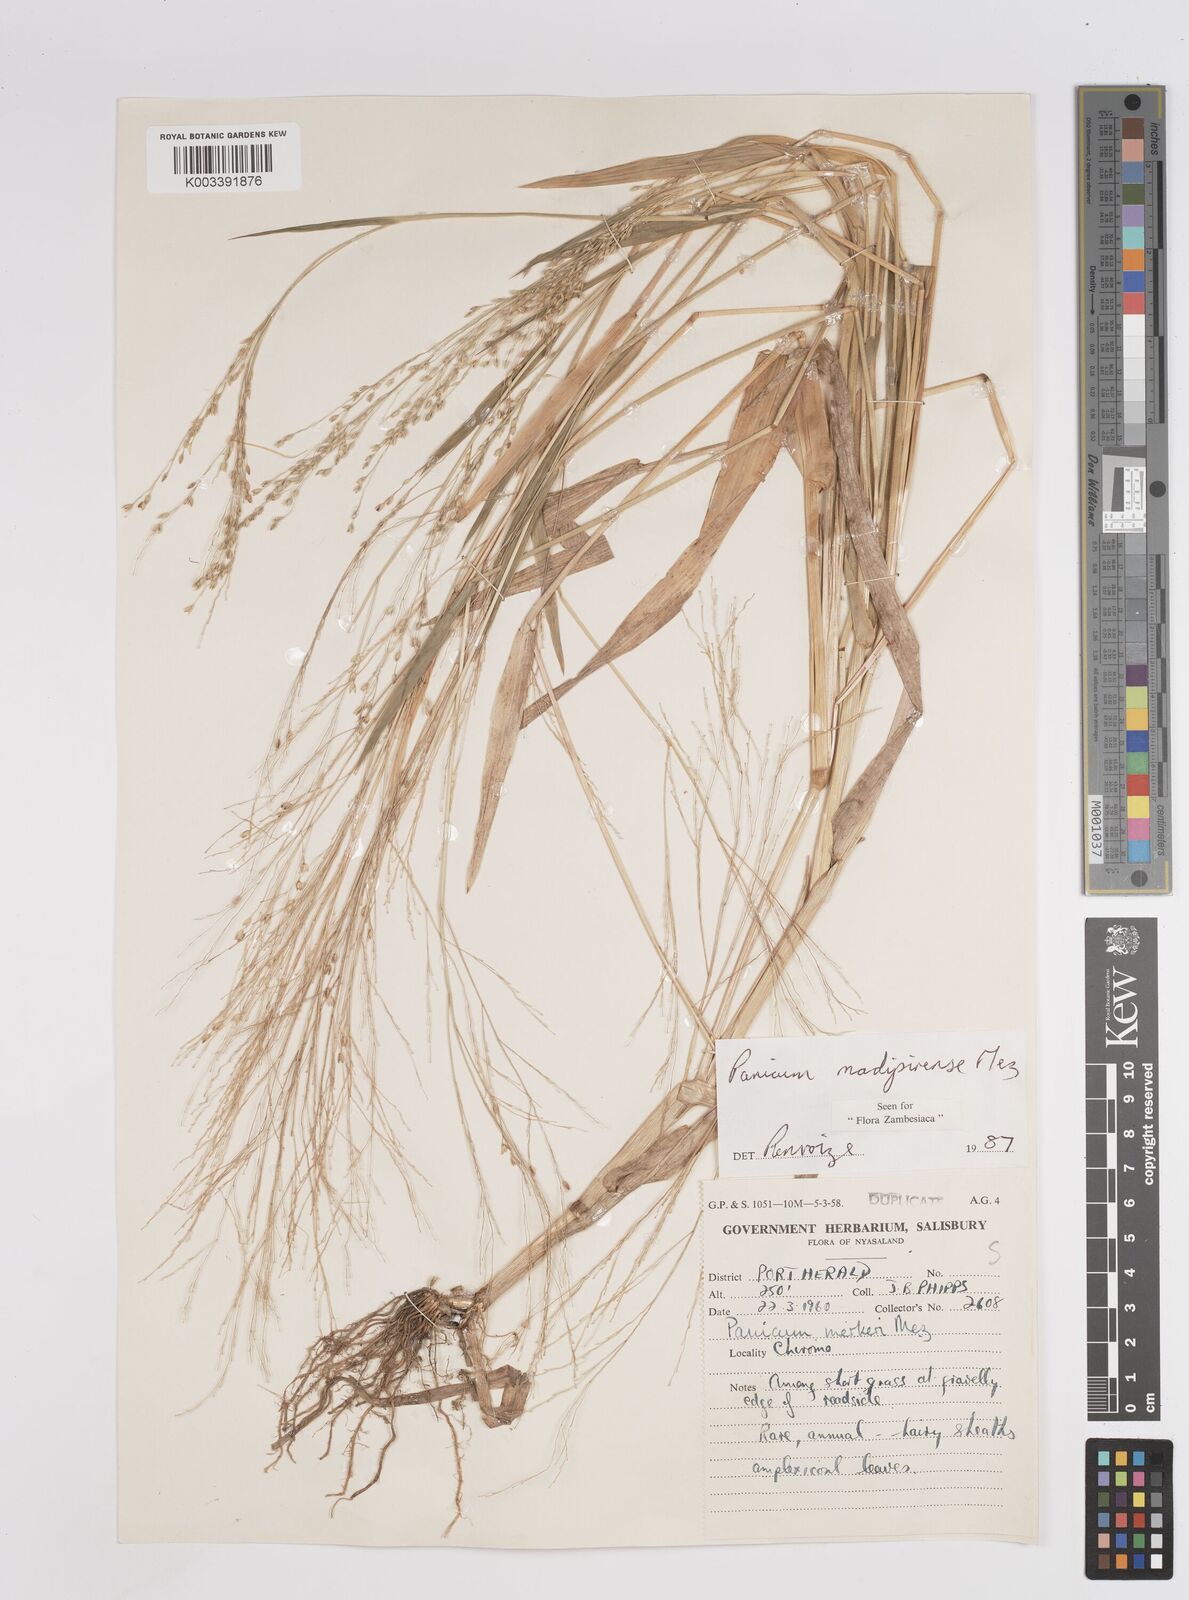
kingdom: Plantae
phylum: Tracheophyta
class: Liliopsida
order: Poales
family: Poaceae
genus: Panicum
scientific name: Panicum madipirense
